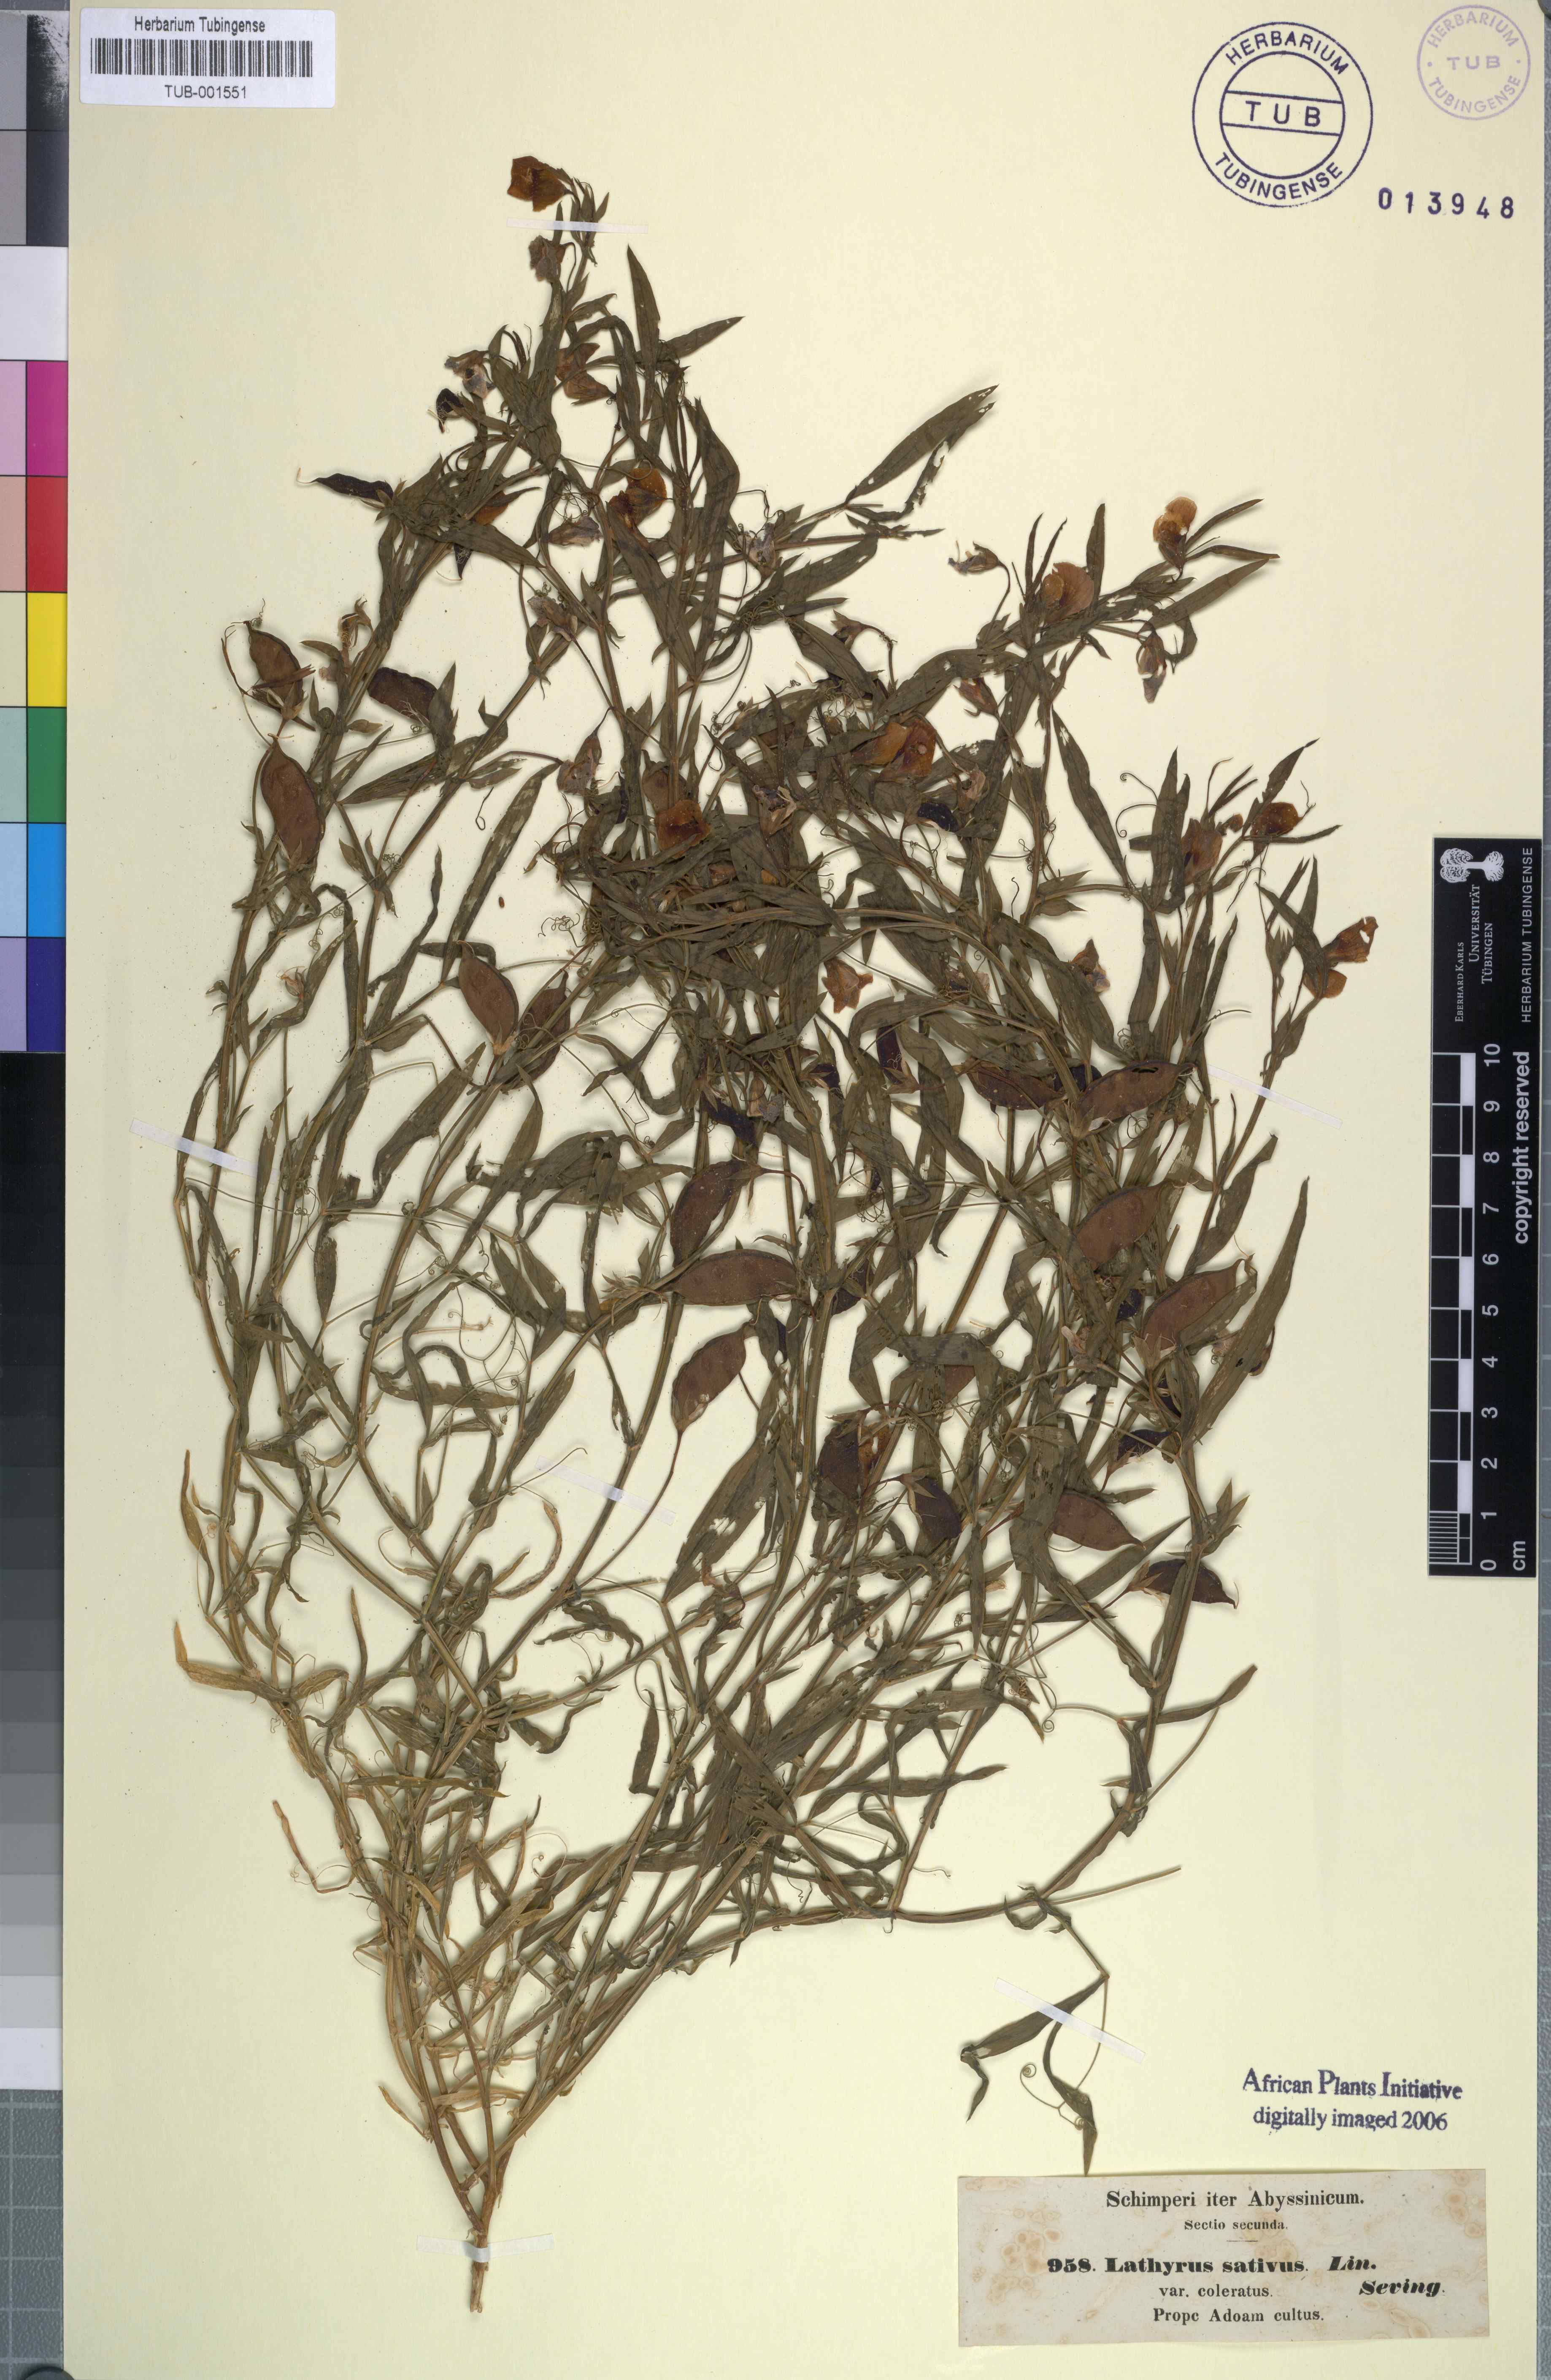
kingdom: Plantae
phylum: Tracheophyta
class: Magnoliopsida
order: Fabales
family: Fabaceae
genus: Lathyrus
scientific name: Lathyrus sativus
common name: Indian pea
